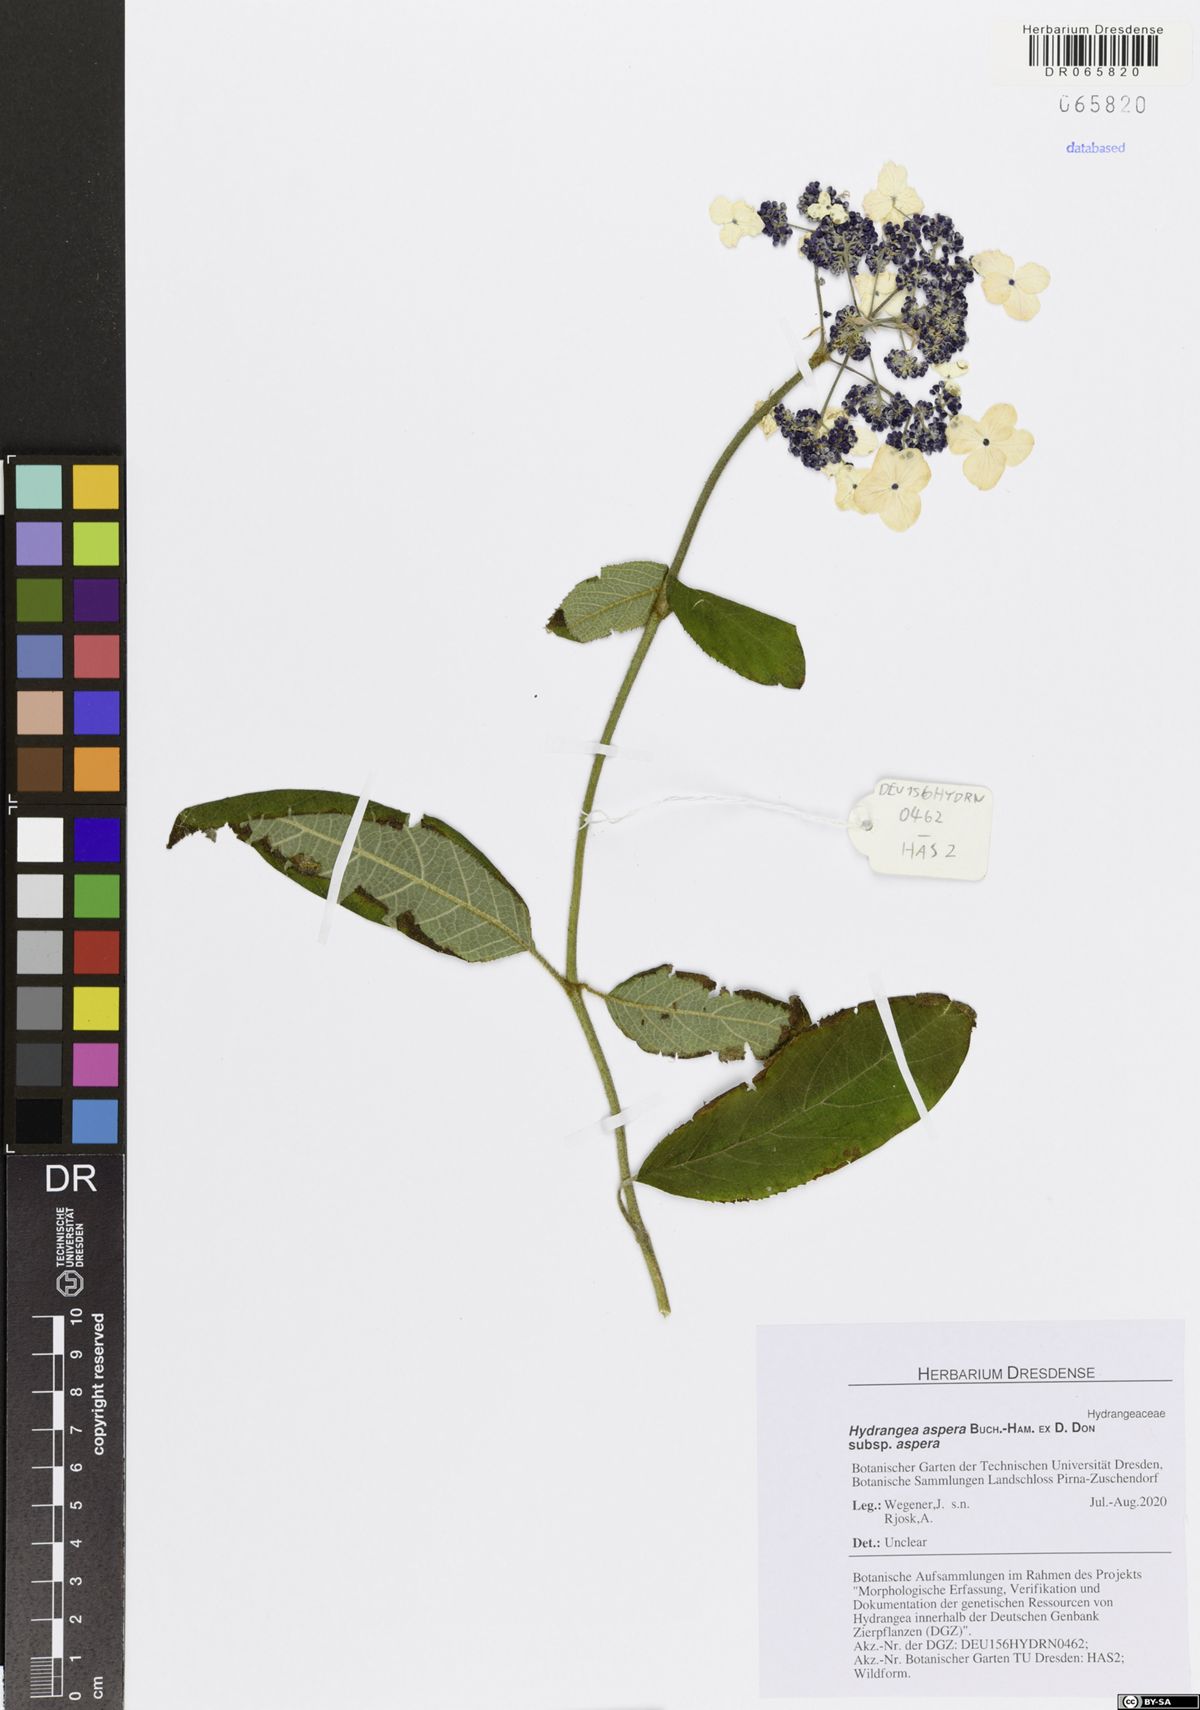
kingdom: Plantae
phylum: Tracheophyta
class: Magnoliopsida
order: Cornales
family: Hydrangeaceae
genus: Hydrangea
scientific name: Hydrangea aspera
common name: Rough-leaf hydrangea
